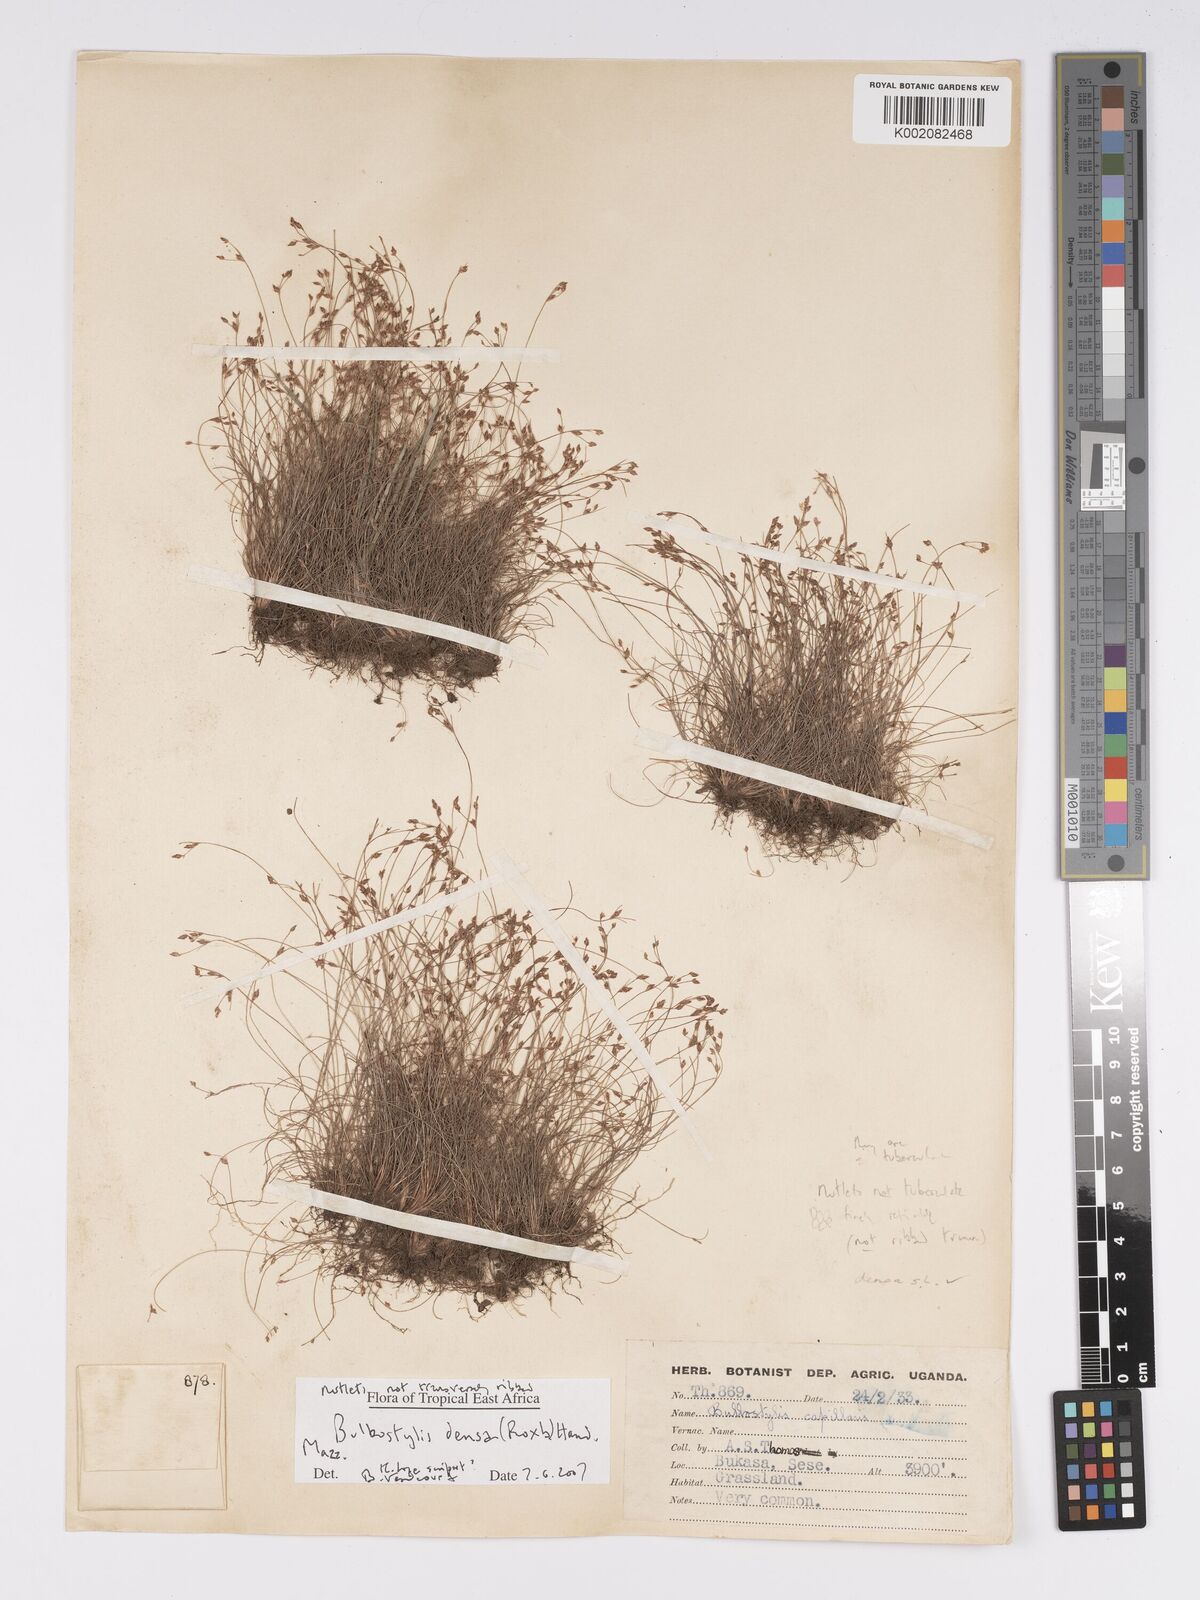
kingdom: Plantae
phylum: Tracheophyta
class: Liliopsida
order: Poales
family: Cyperaceae
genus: Bulbostylis
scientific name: Bulbostylis densa
